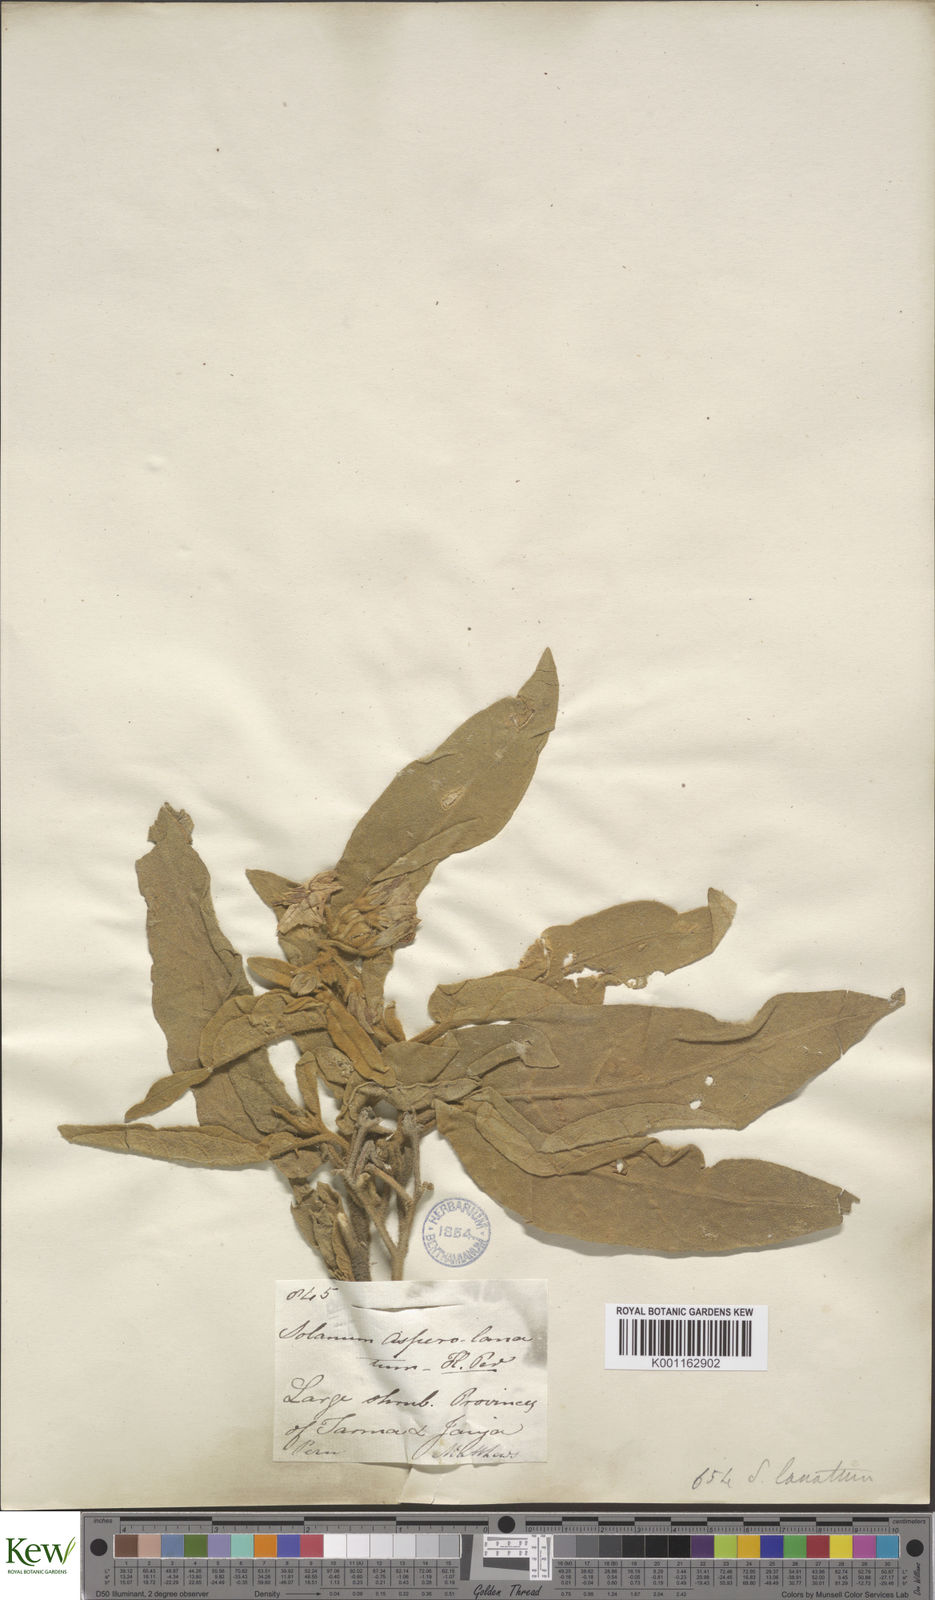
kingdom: Plantae
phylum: Tracheophyta
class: Magnoliopsida
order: Solanales
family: Solanaceae
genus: Solanum
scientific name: Solanum asperolanatum
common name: Devil's-fig
